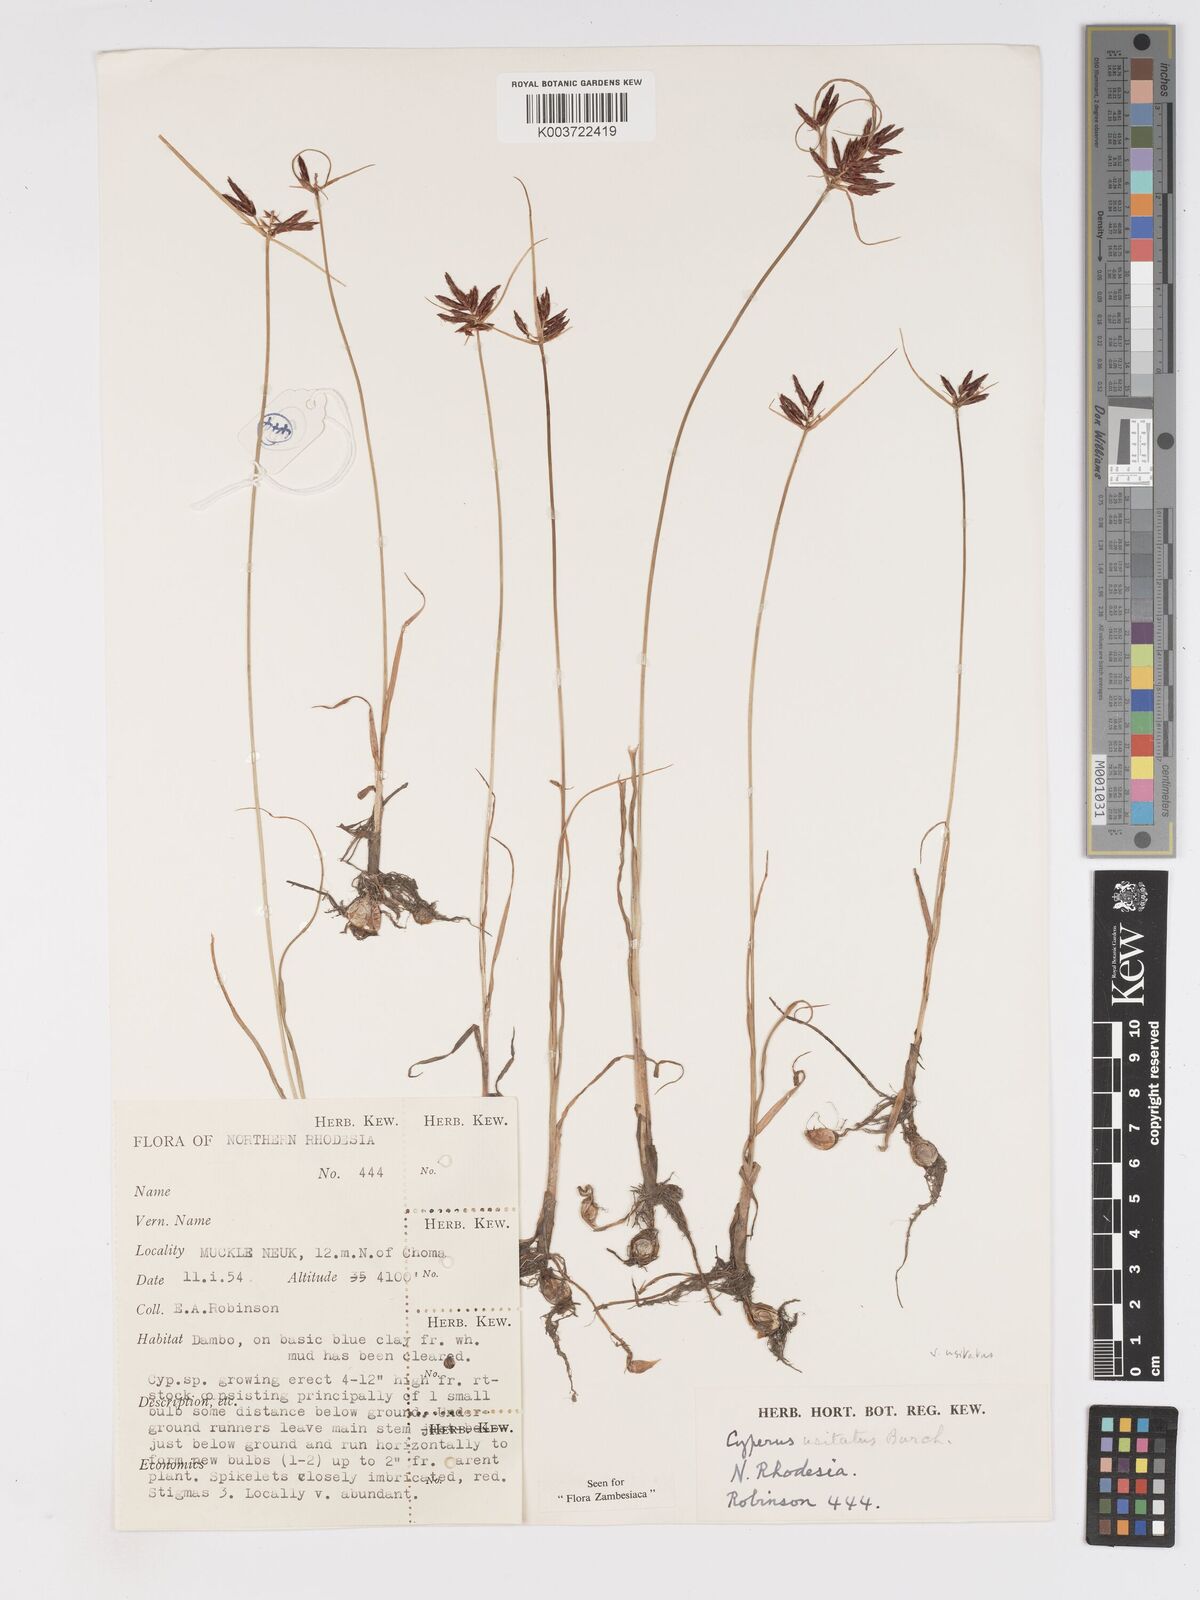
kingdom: Plantae
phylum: Tracheophyta
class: Liliopsida
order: Poales
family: Cyperaceae
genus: Cyperus
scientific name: Cyperus usitatus
